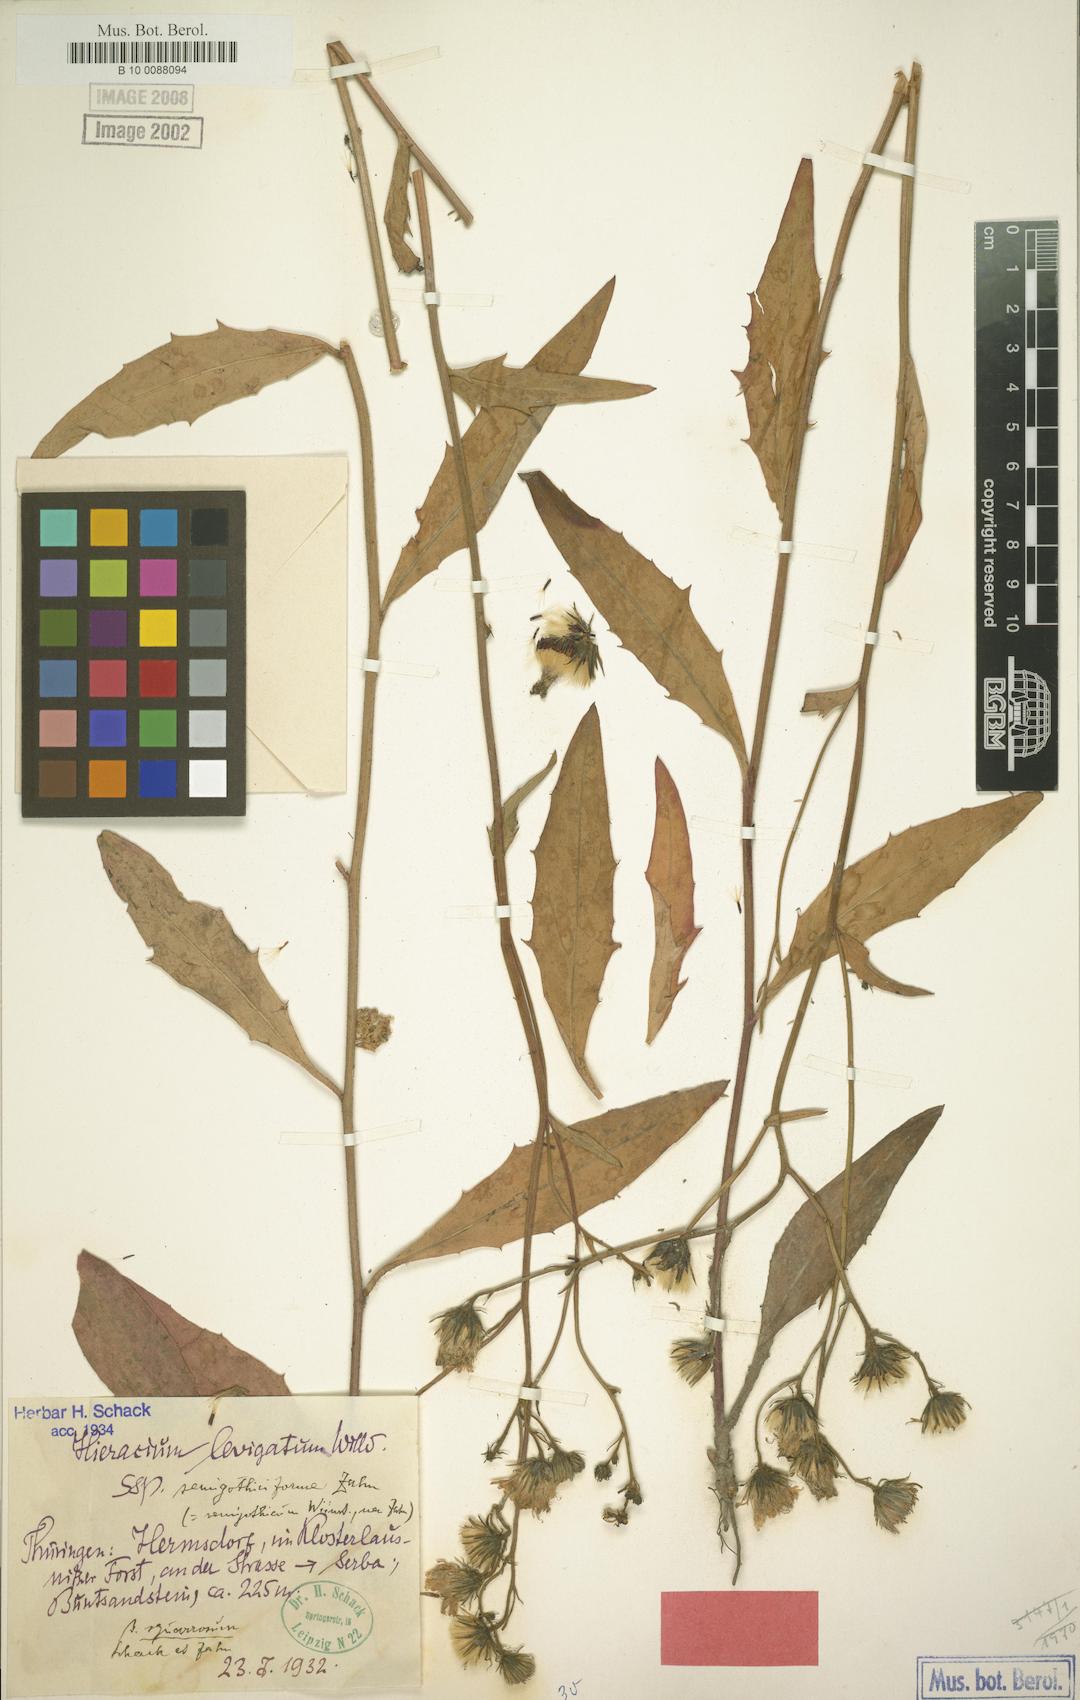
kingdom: Plantae
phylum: Tracheophyta
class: Magnoliopsida
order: Asterales
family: Asteraceae
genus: Hieracium
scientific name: Hieracium laevigatum
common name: Smooth hawkweed
